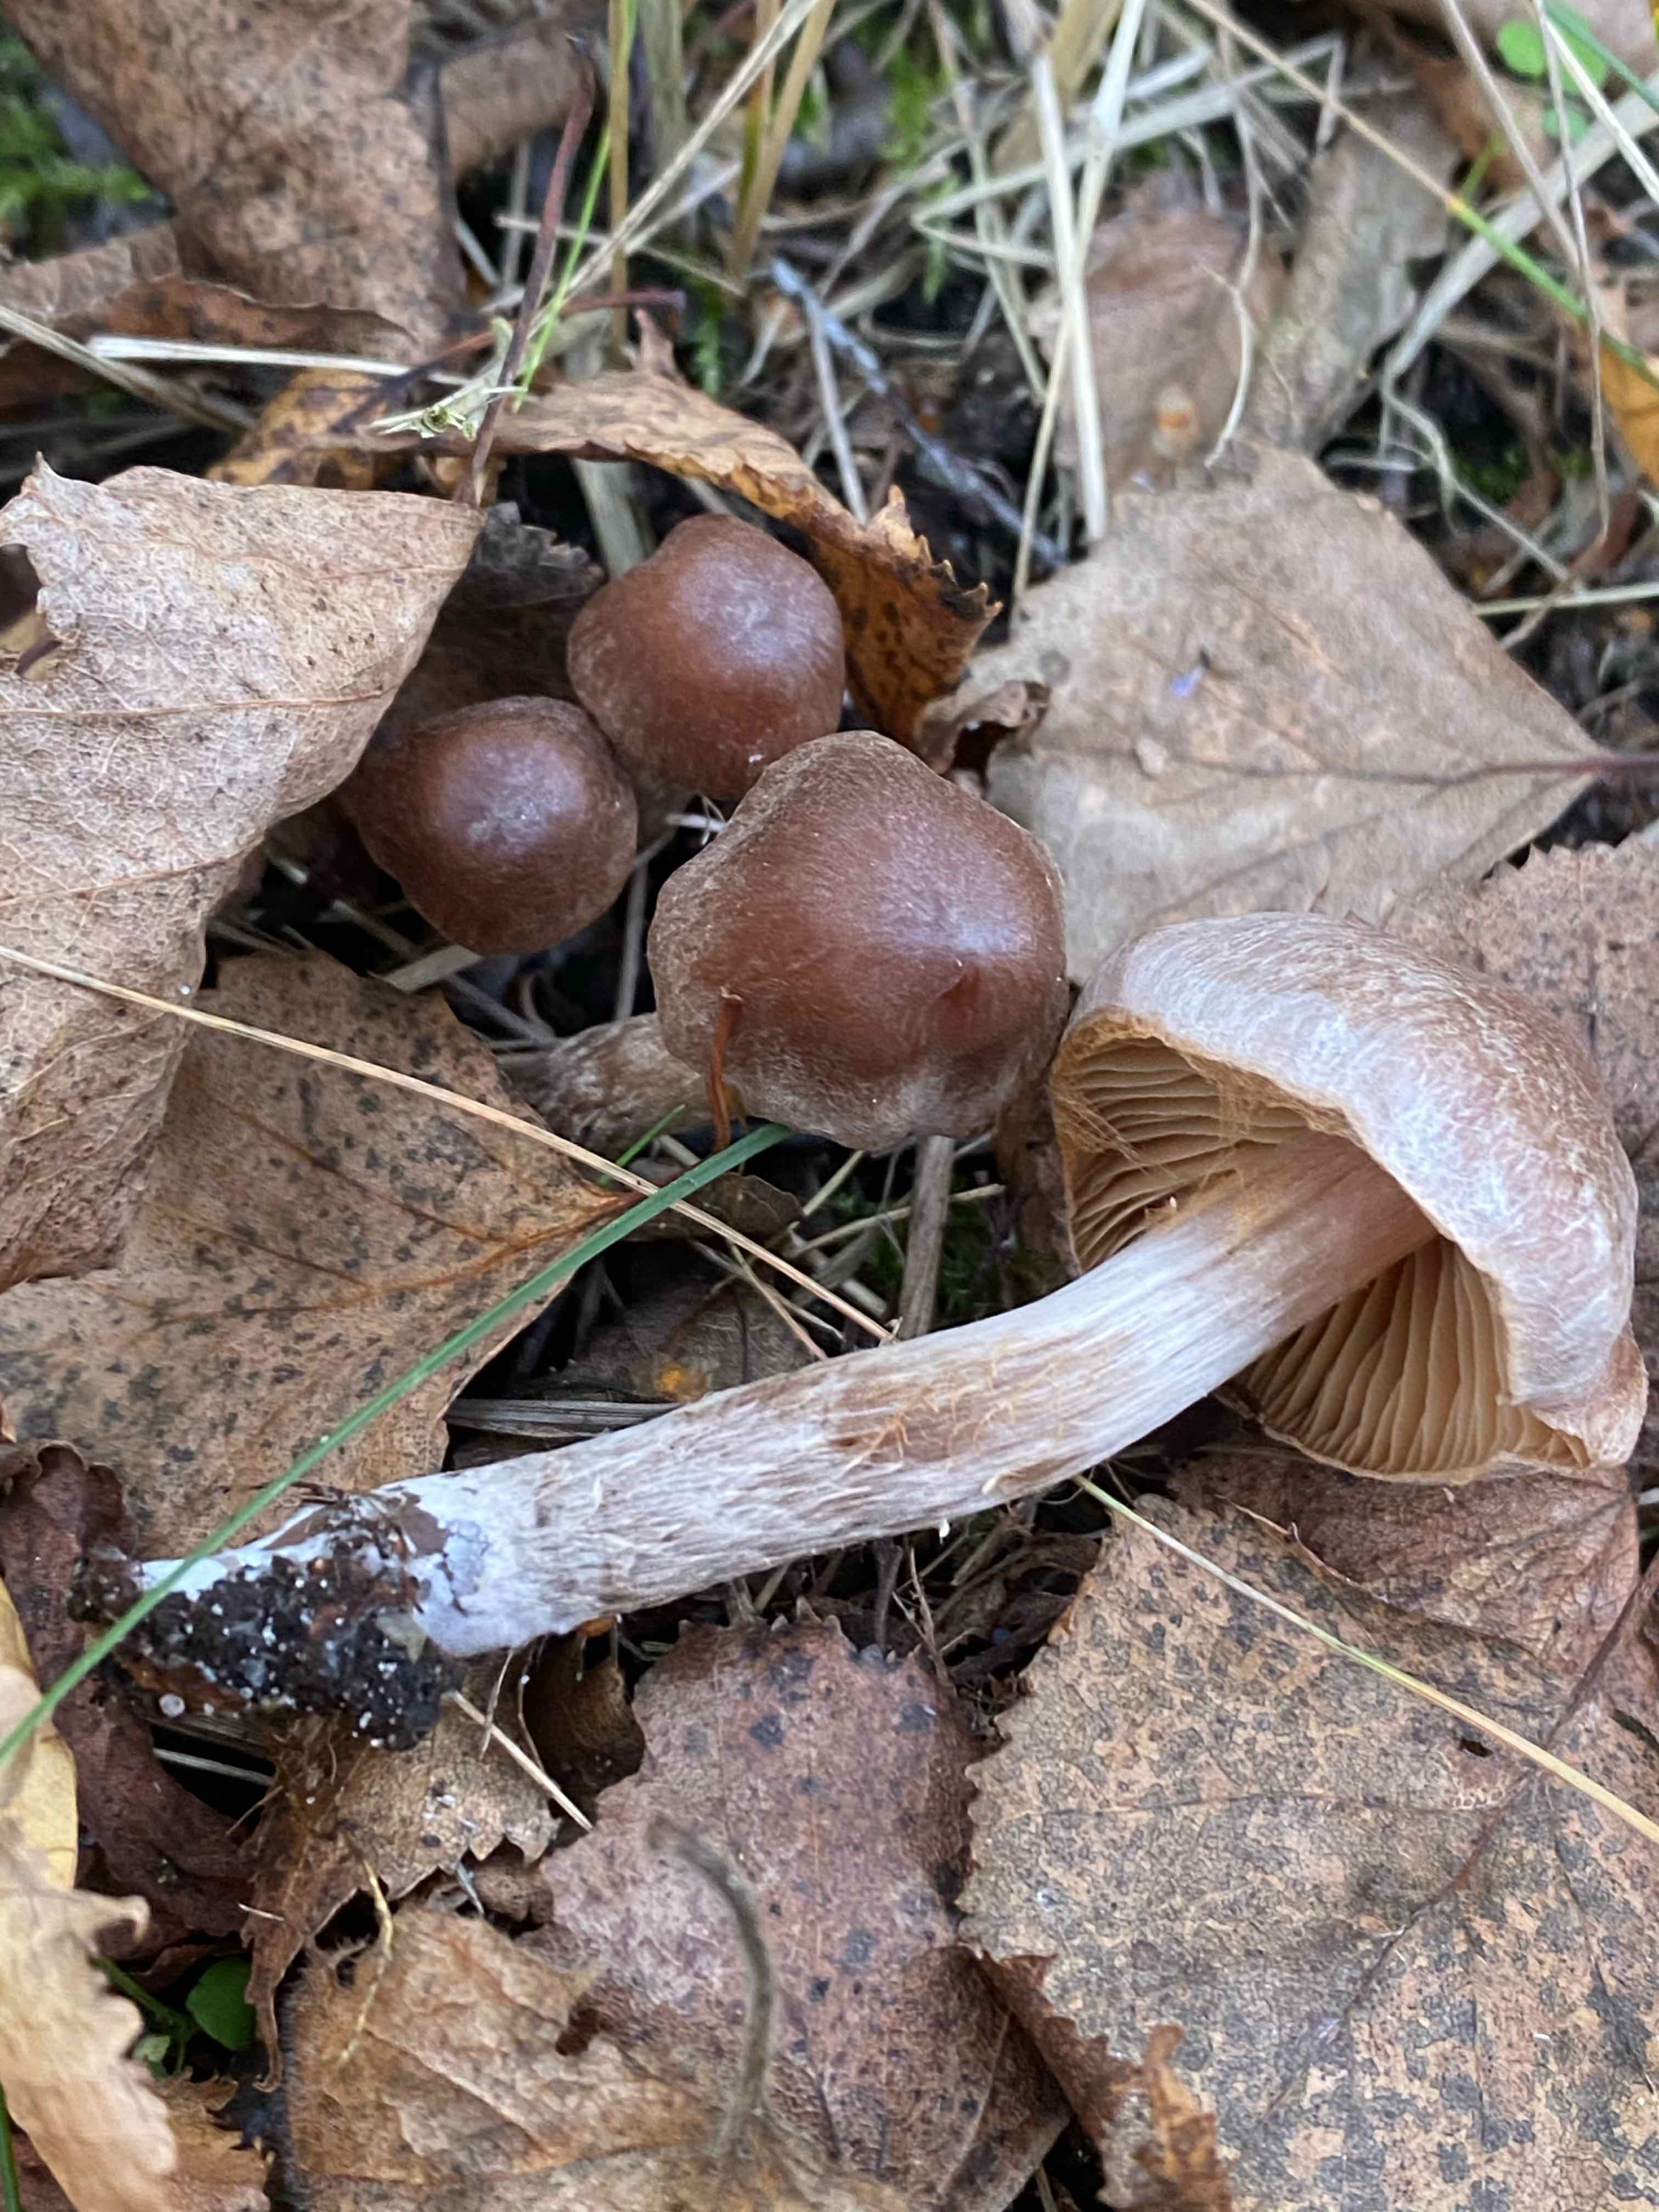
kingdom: Fungi
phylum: Basidiomycota
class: Agaricomycetes
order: Agaricales
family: Cortinariaceae
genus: Cortinarius
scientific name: Cortinarius
